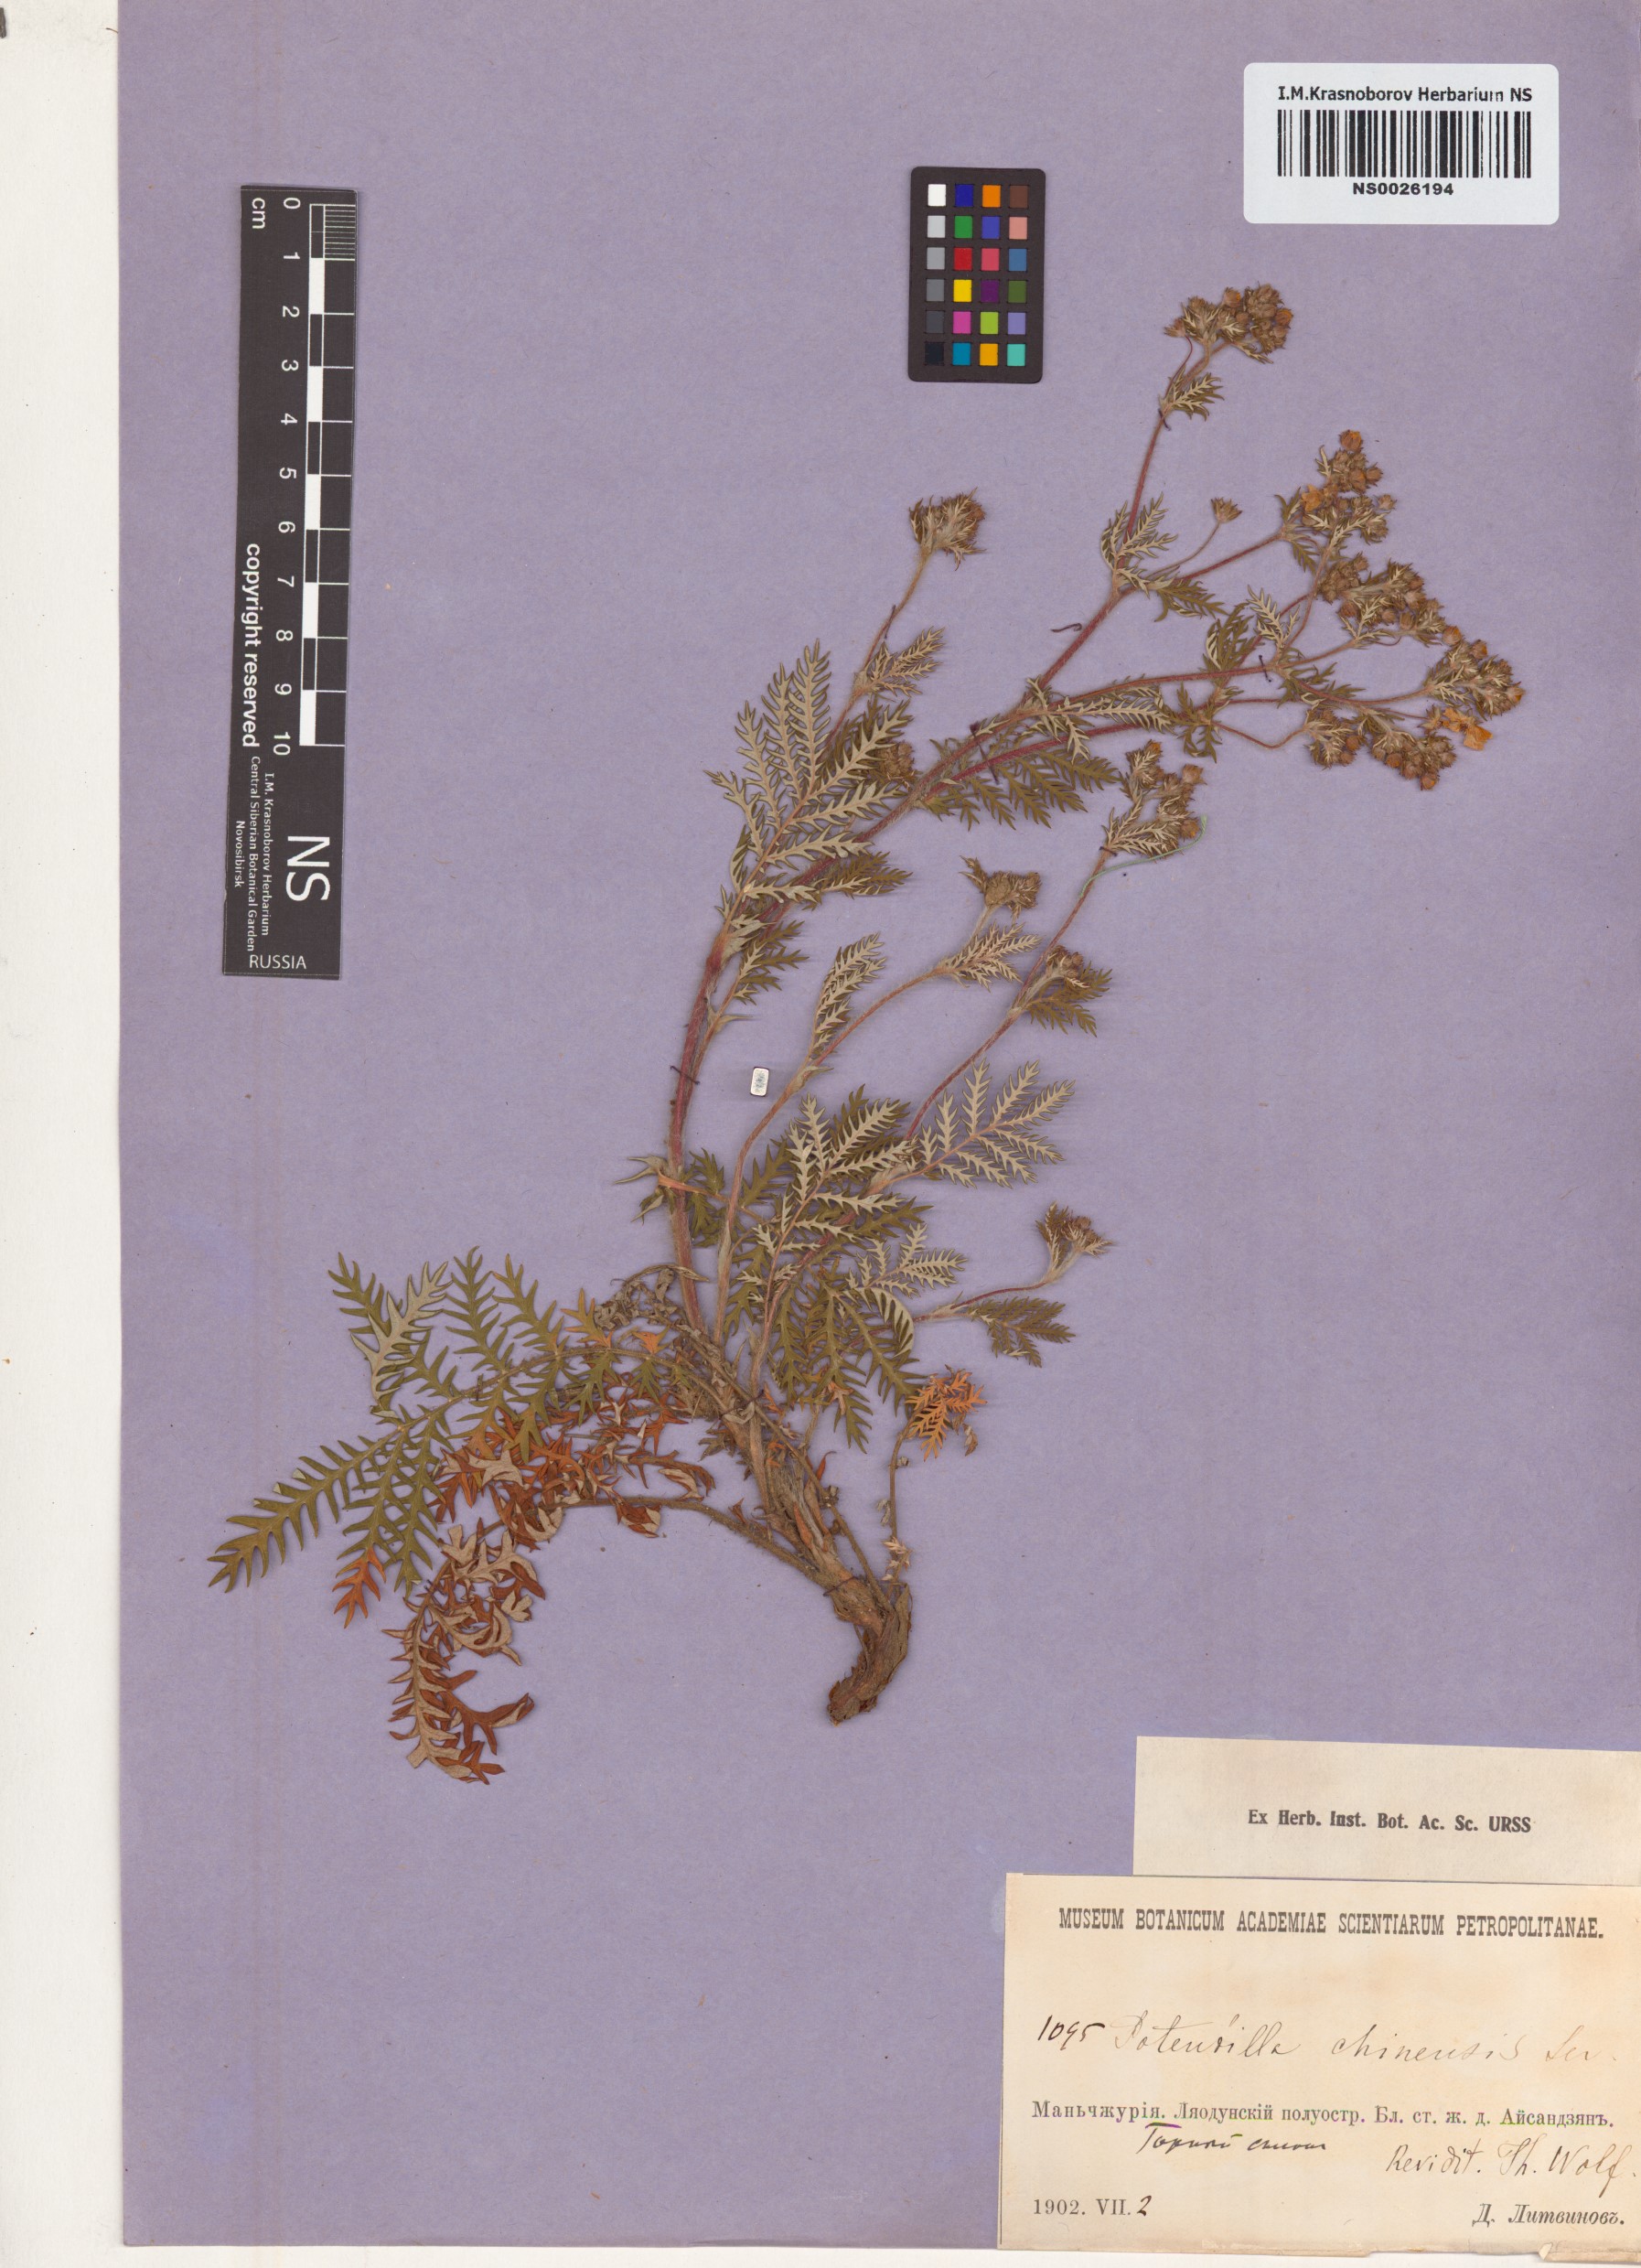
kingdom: Plantae
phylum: Tracheophyta
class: Magnoliopsida
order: Rosales
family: Rosaceae
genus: Potentilla
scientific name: Potentilla chinensis
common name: Chinese cinquefoil
